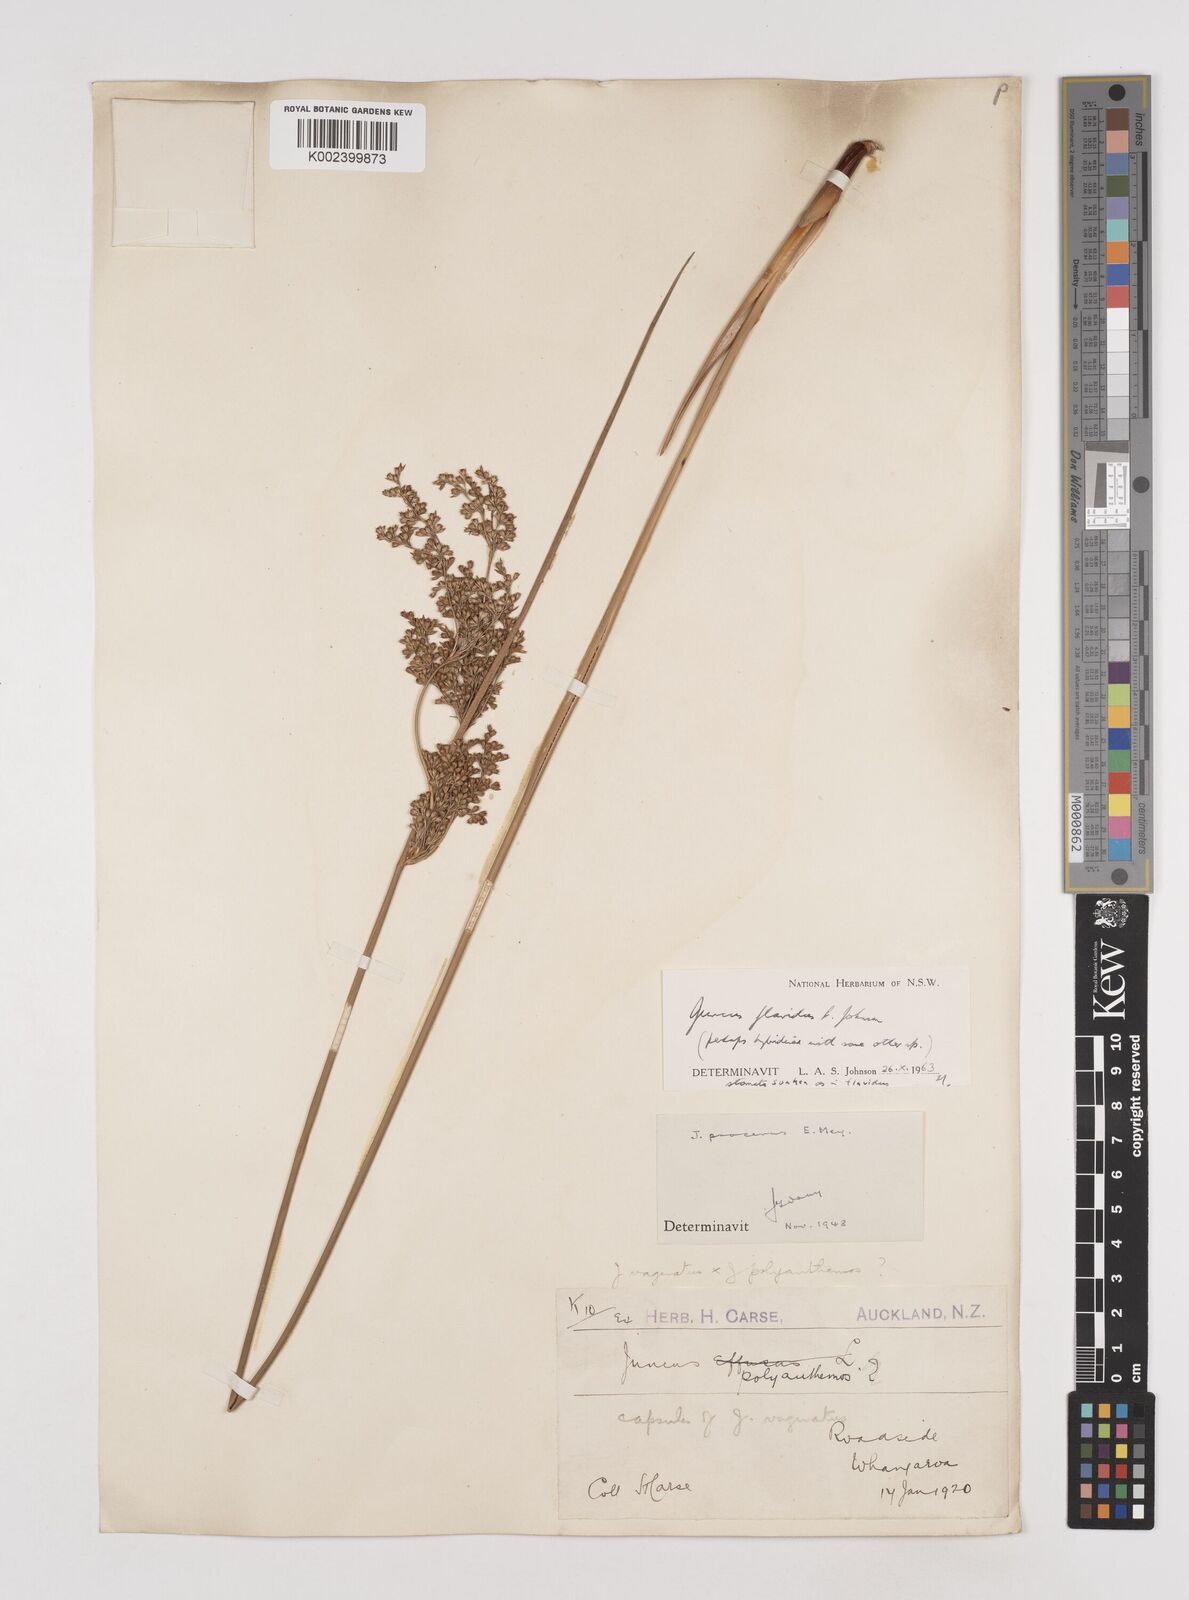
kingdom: Plantae
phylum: Tracheophyta
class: Liliopsida
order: Poales
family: Juncaceae
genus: Juncus
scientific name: Juncus flavidus
